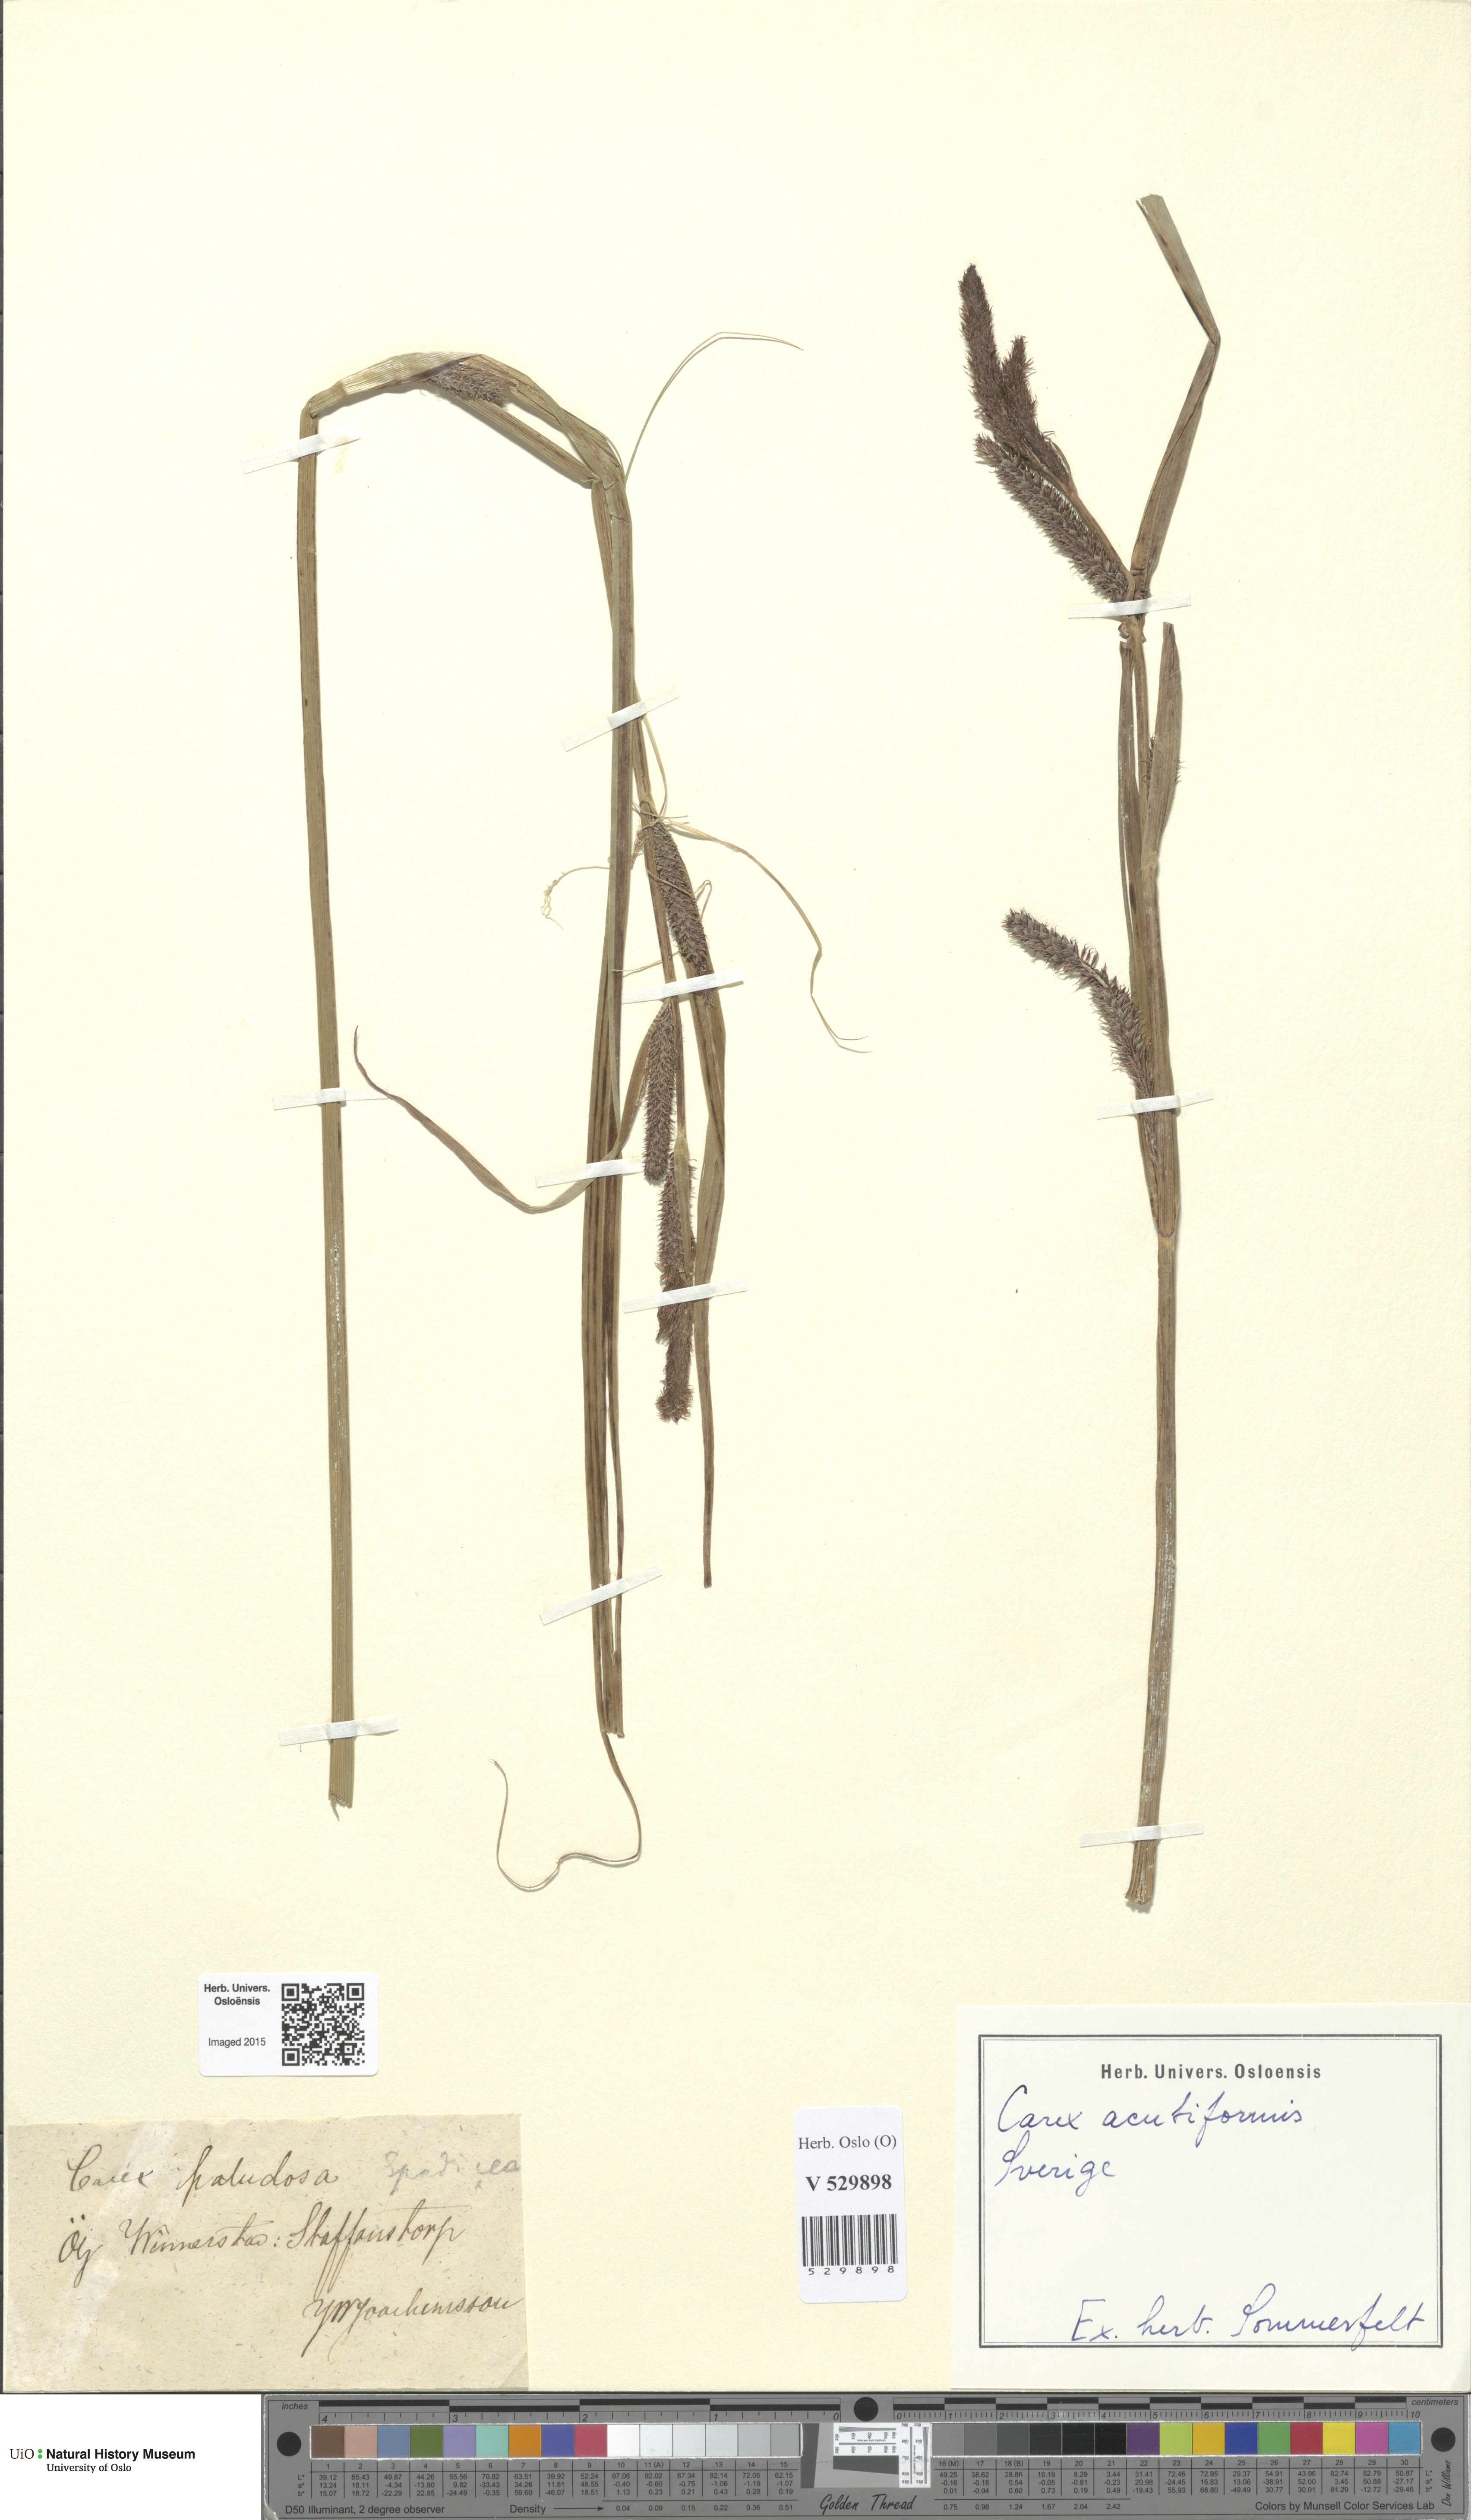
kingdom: Plantae
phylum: Tracheophyta
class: Liliopsida
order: Poales
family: Cyperaceae
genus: Carex
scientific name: Carex acutiformis
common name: Lesser pond-sedge
